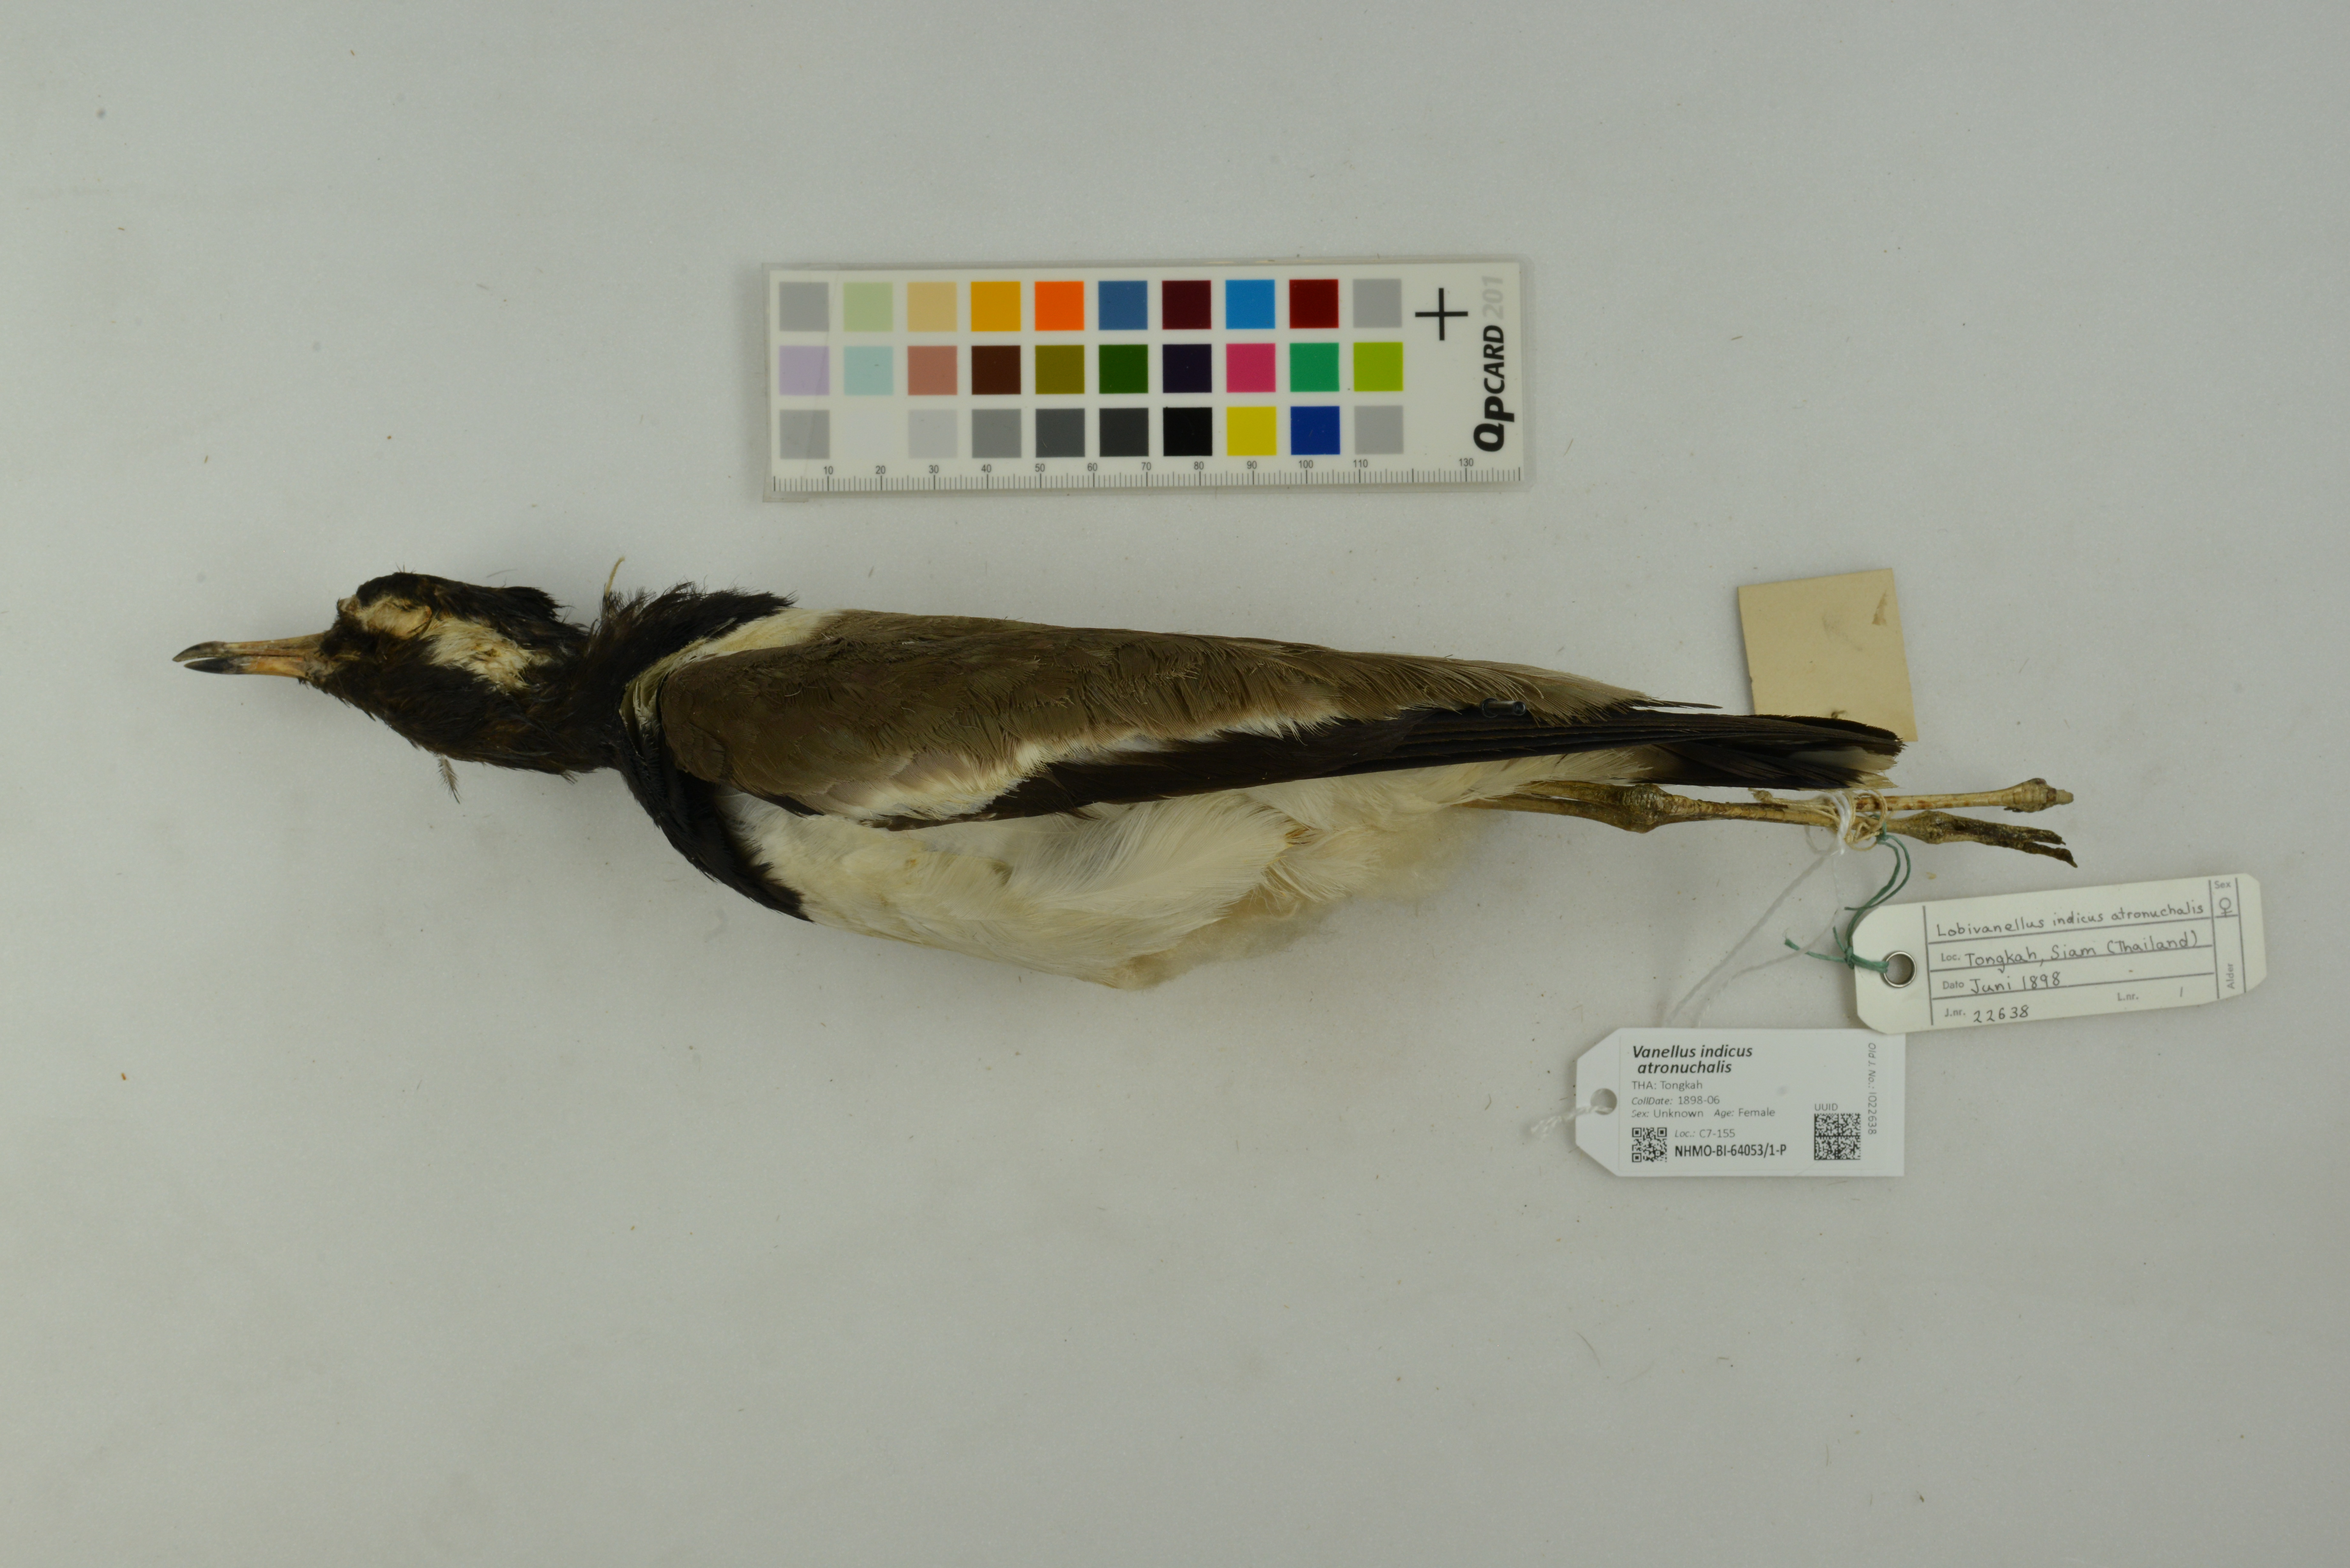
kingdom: Animalia
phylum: Chordata
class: Aves
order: Charadriiformes
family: Charadriidae
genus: Vanellus
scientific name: Vanellus indicus
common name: Red-wattled lapwing
